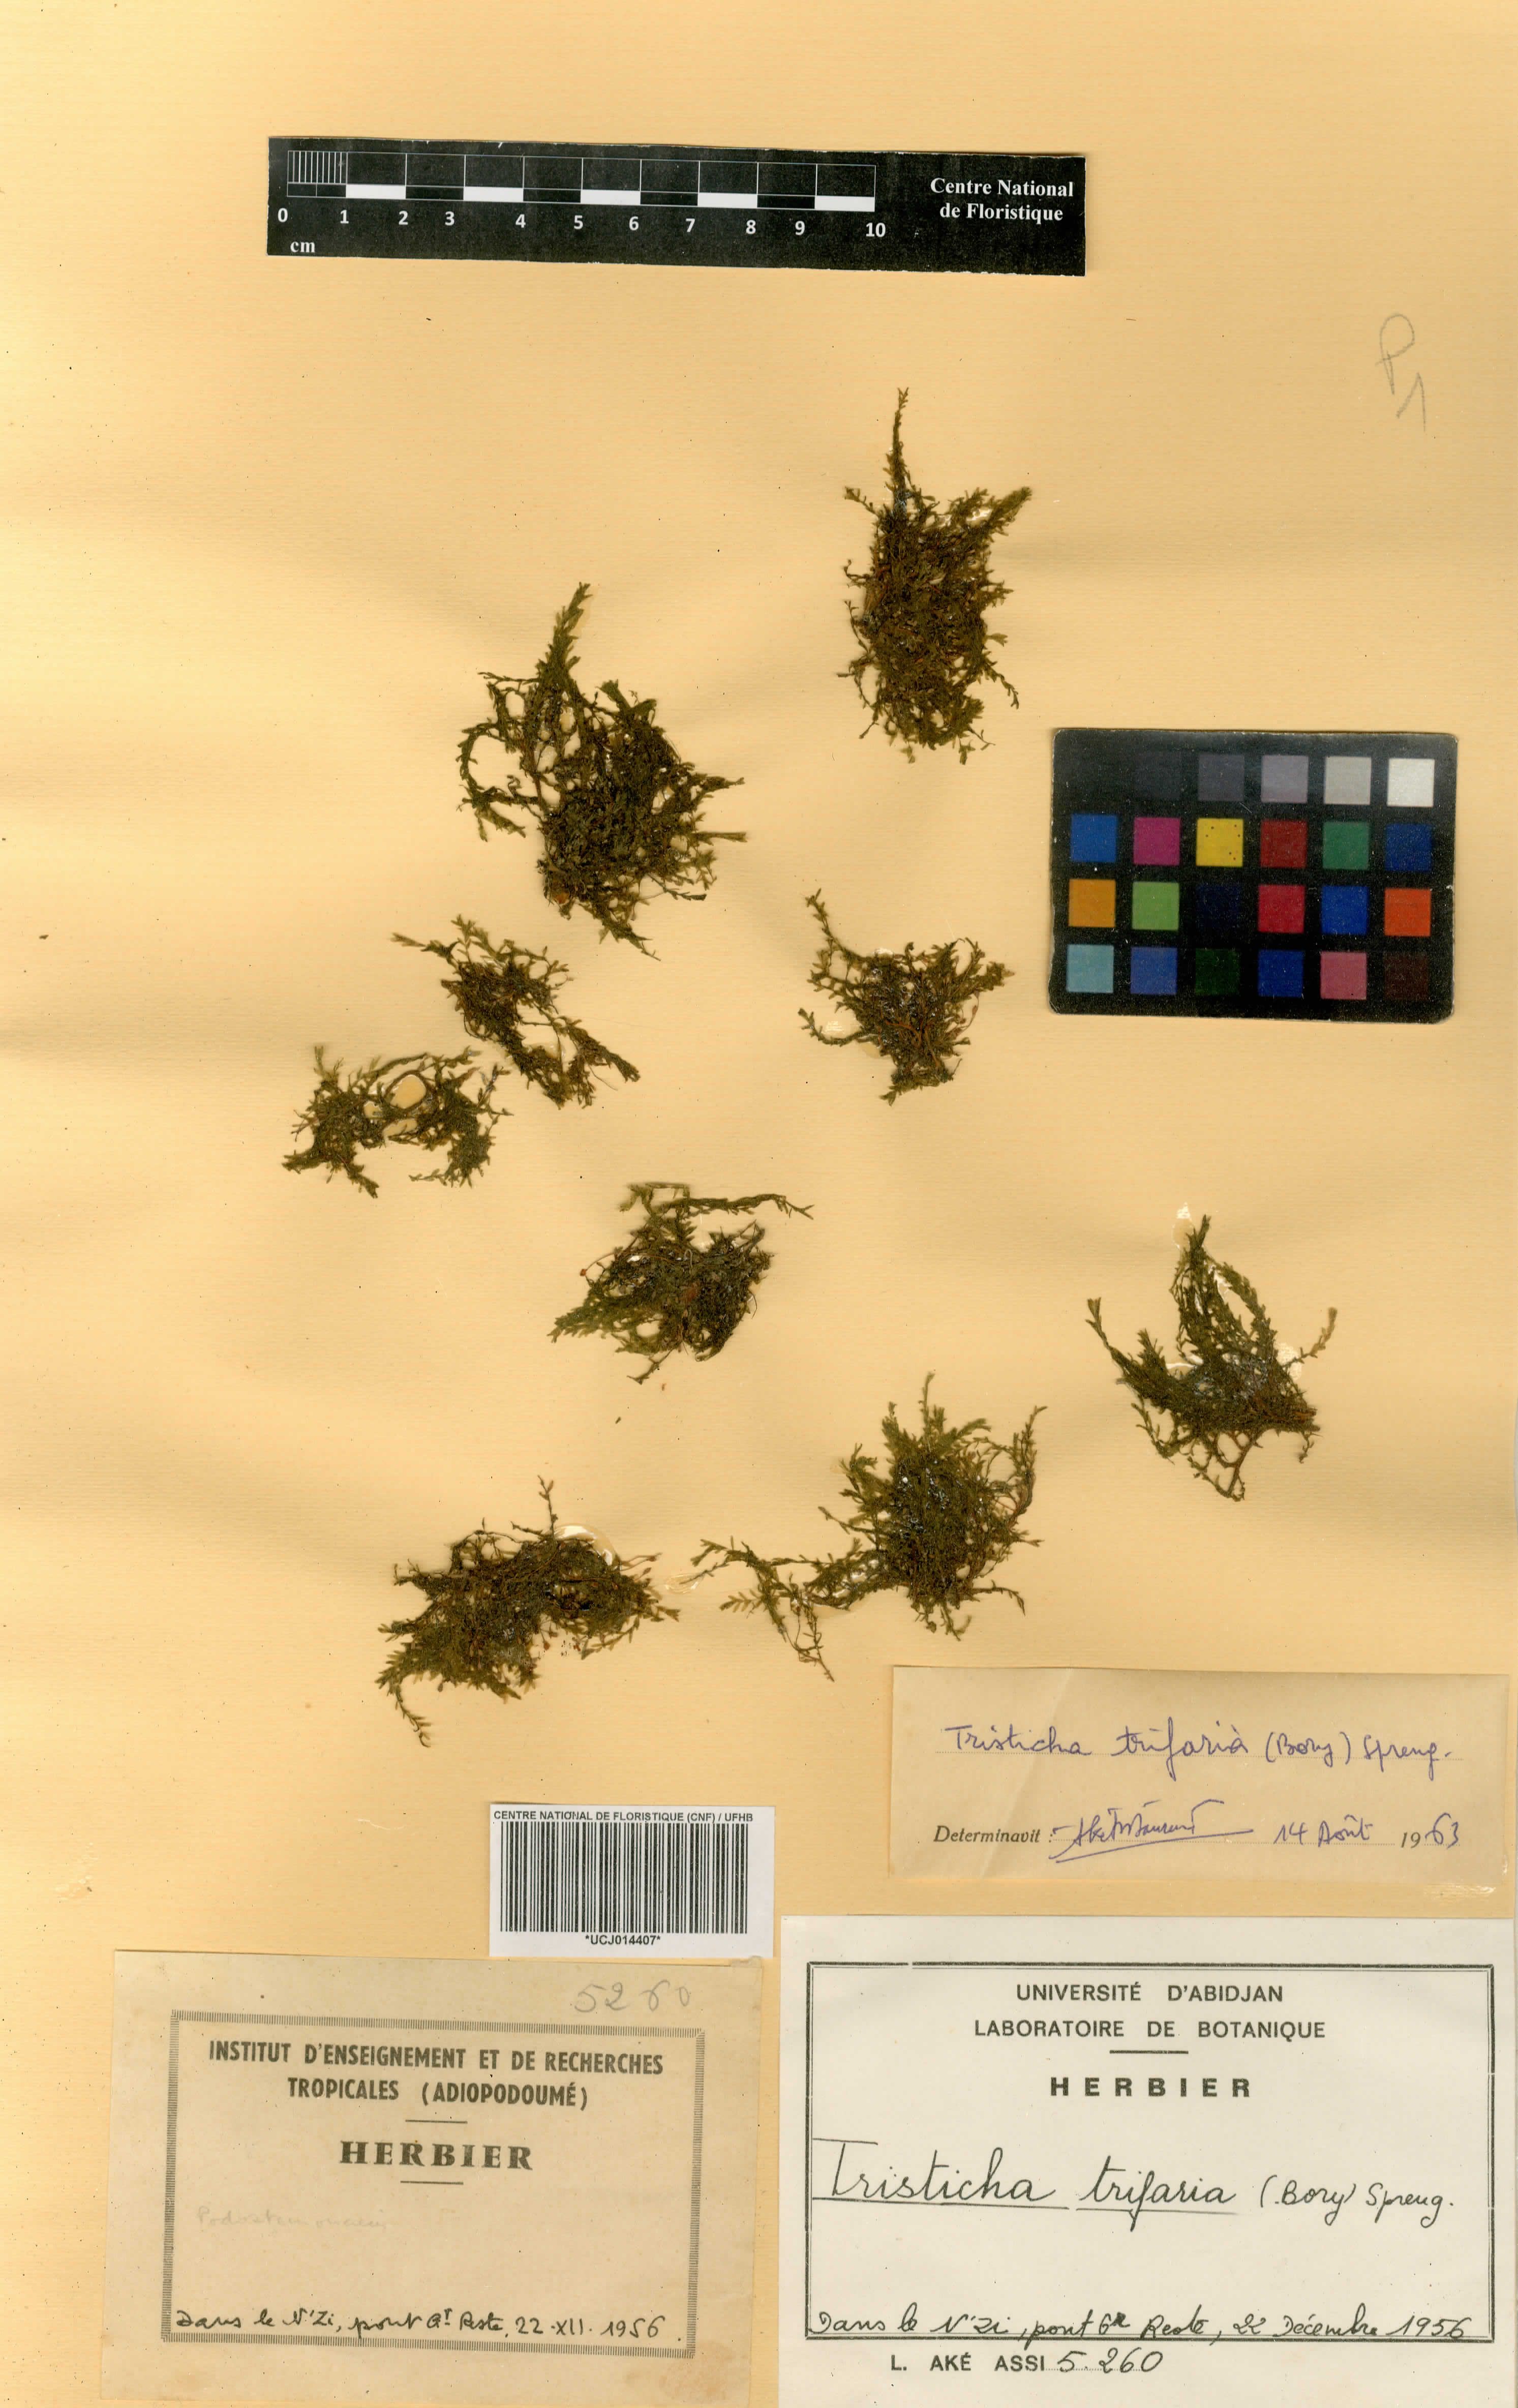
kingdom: Plantae
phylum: Tracheophyta
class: Magnoliopsida
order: Malpighiales
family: Podostemaceae
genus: Tristicha
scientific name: Tristicha trifaria
